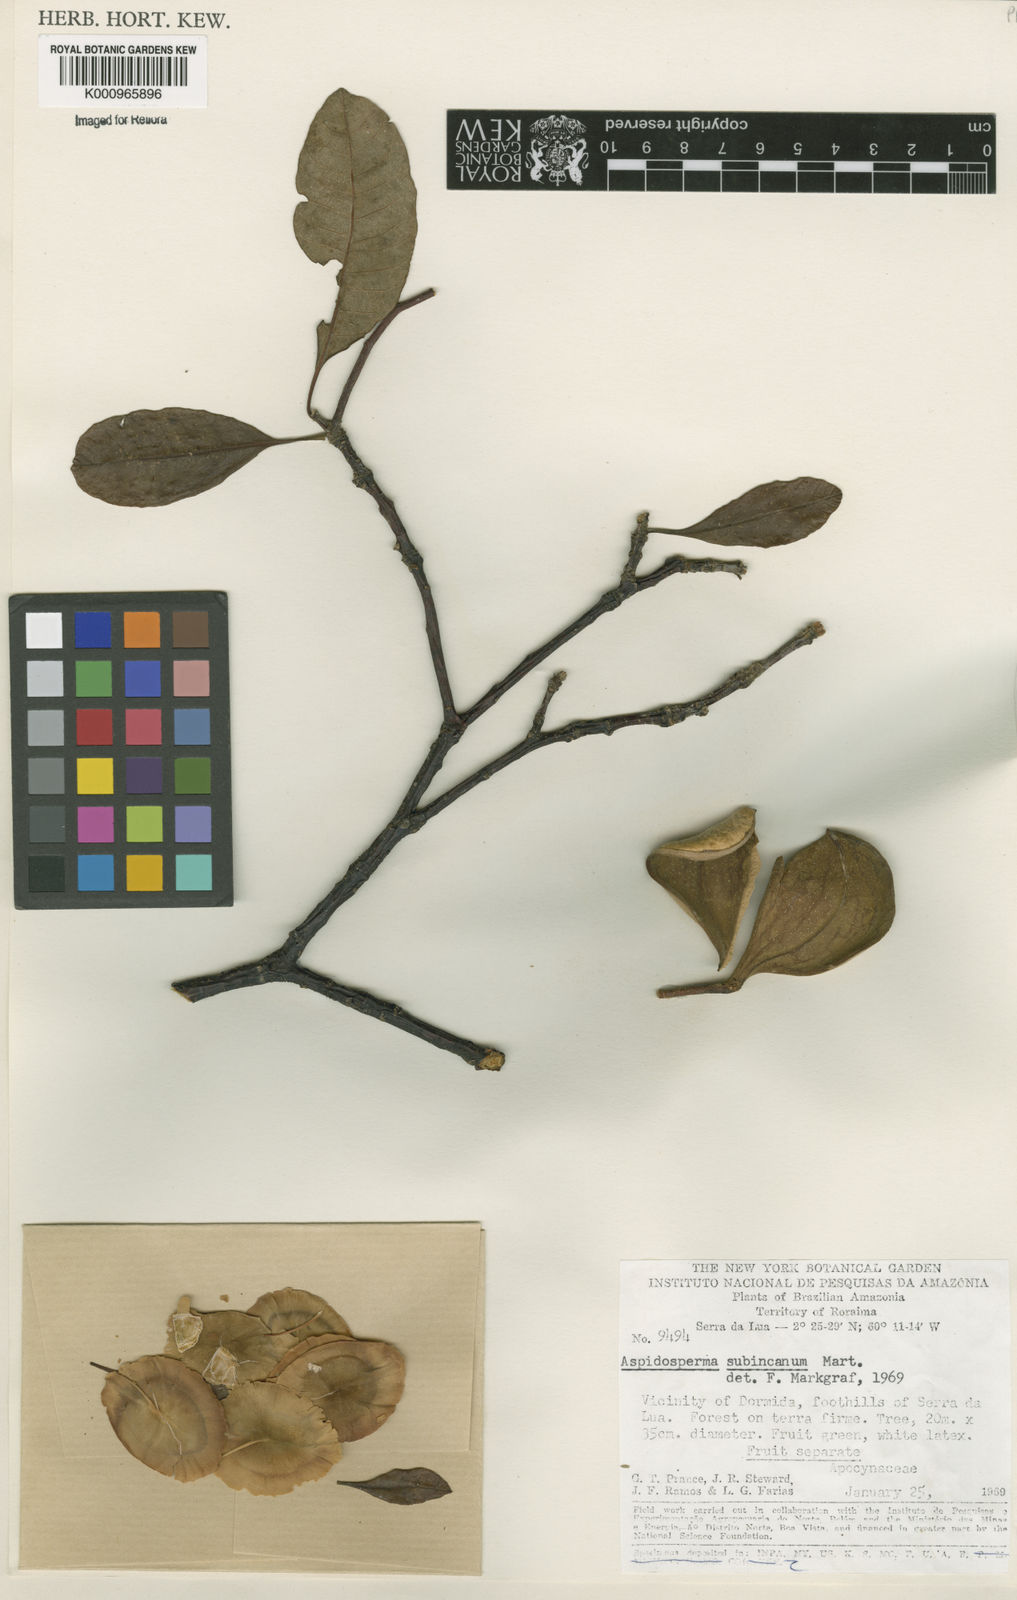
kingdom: Plantae
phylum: Tracheophyta
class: Magnoliopsida
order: Gentianales
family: Apocynaceae
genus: Aspidosperma
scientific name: Aspidosperma subincanum
